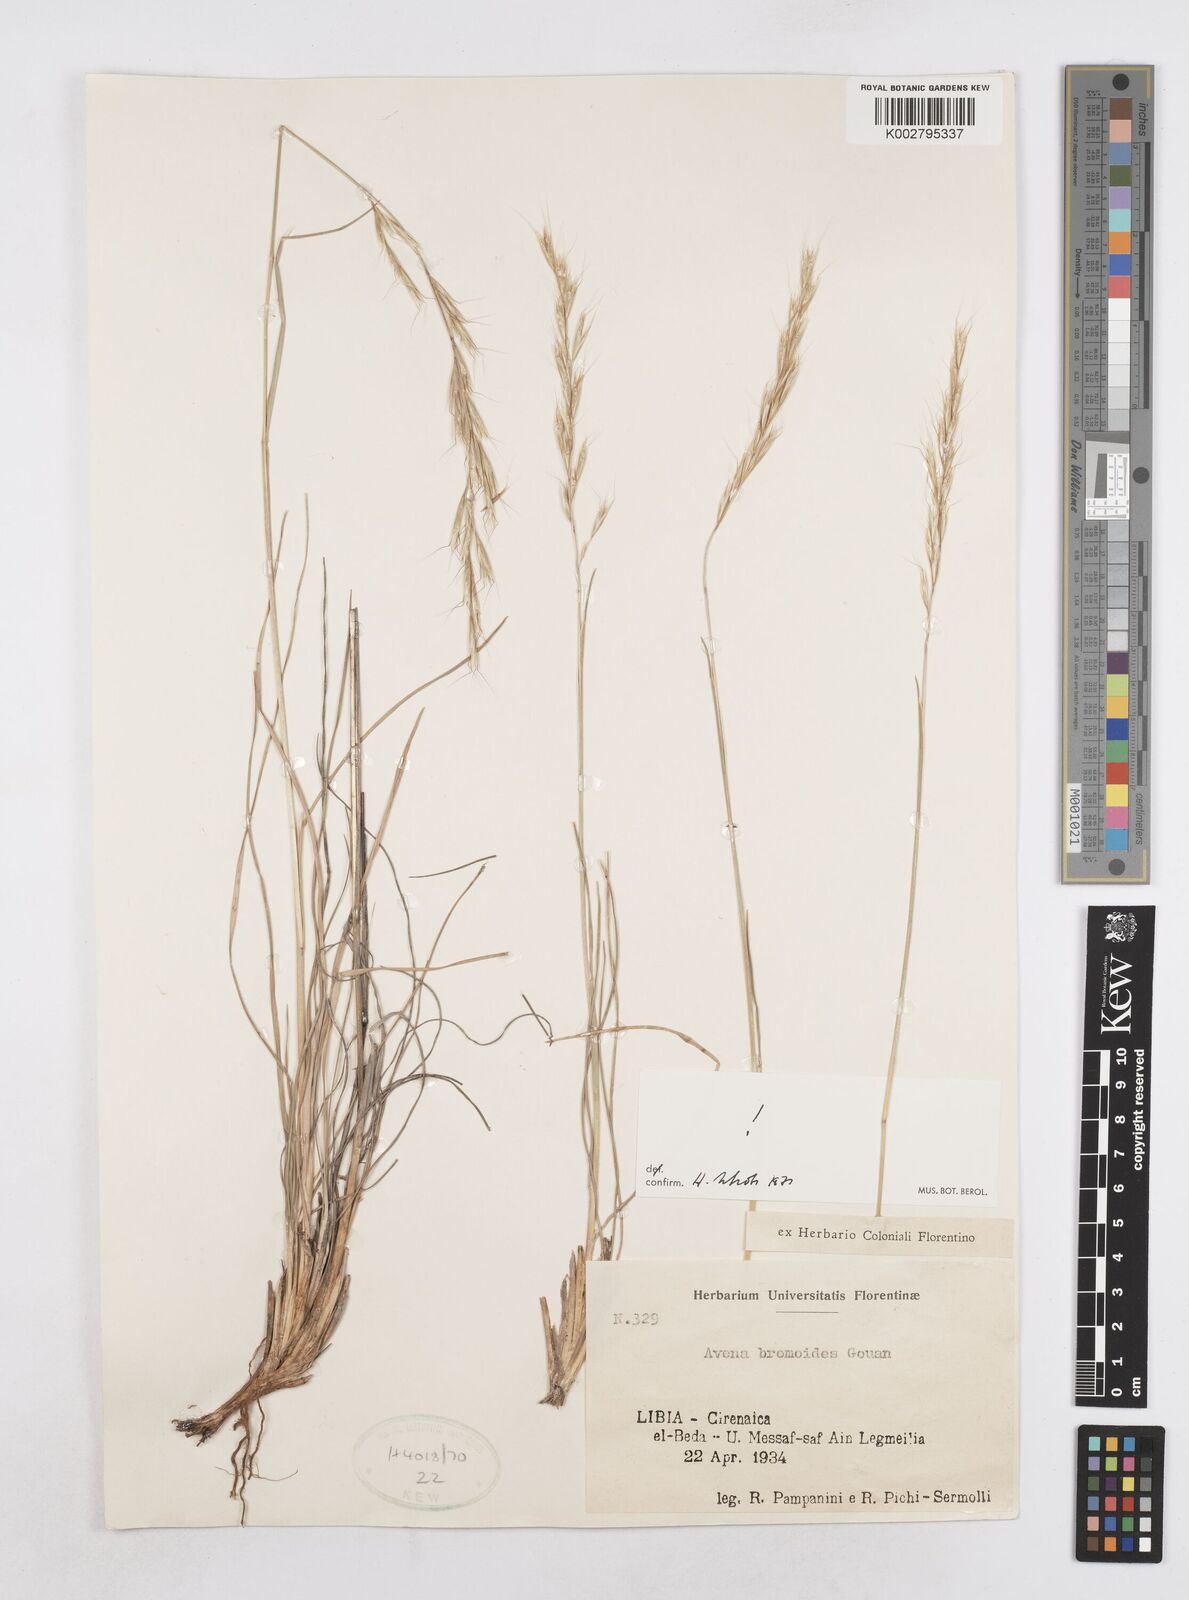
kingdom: Plantae
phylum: Tracheophyta
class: Liliopsida
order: Poales
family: Poaceae
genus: Helictochloa
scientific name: Helictochloa bromoides
